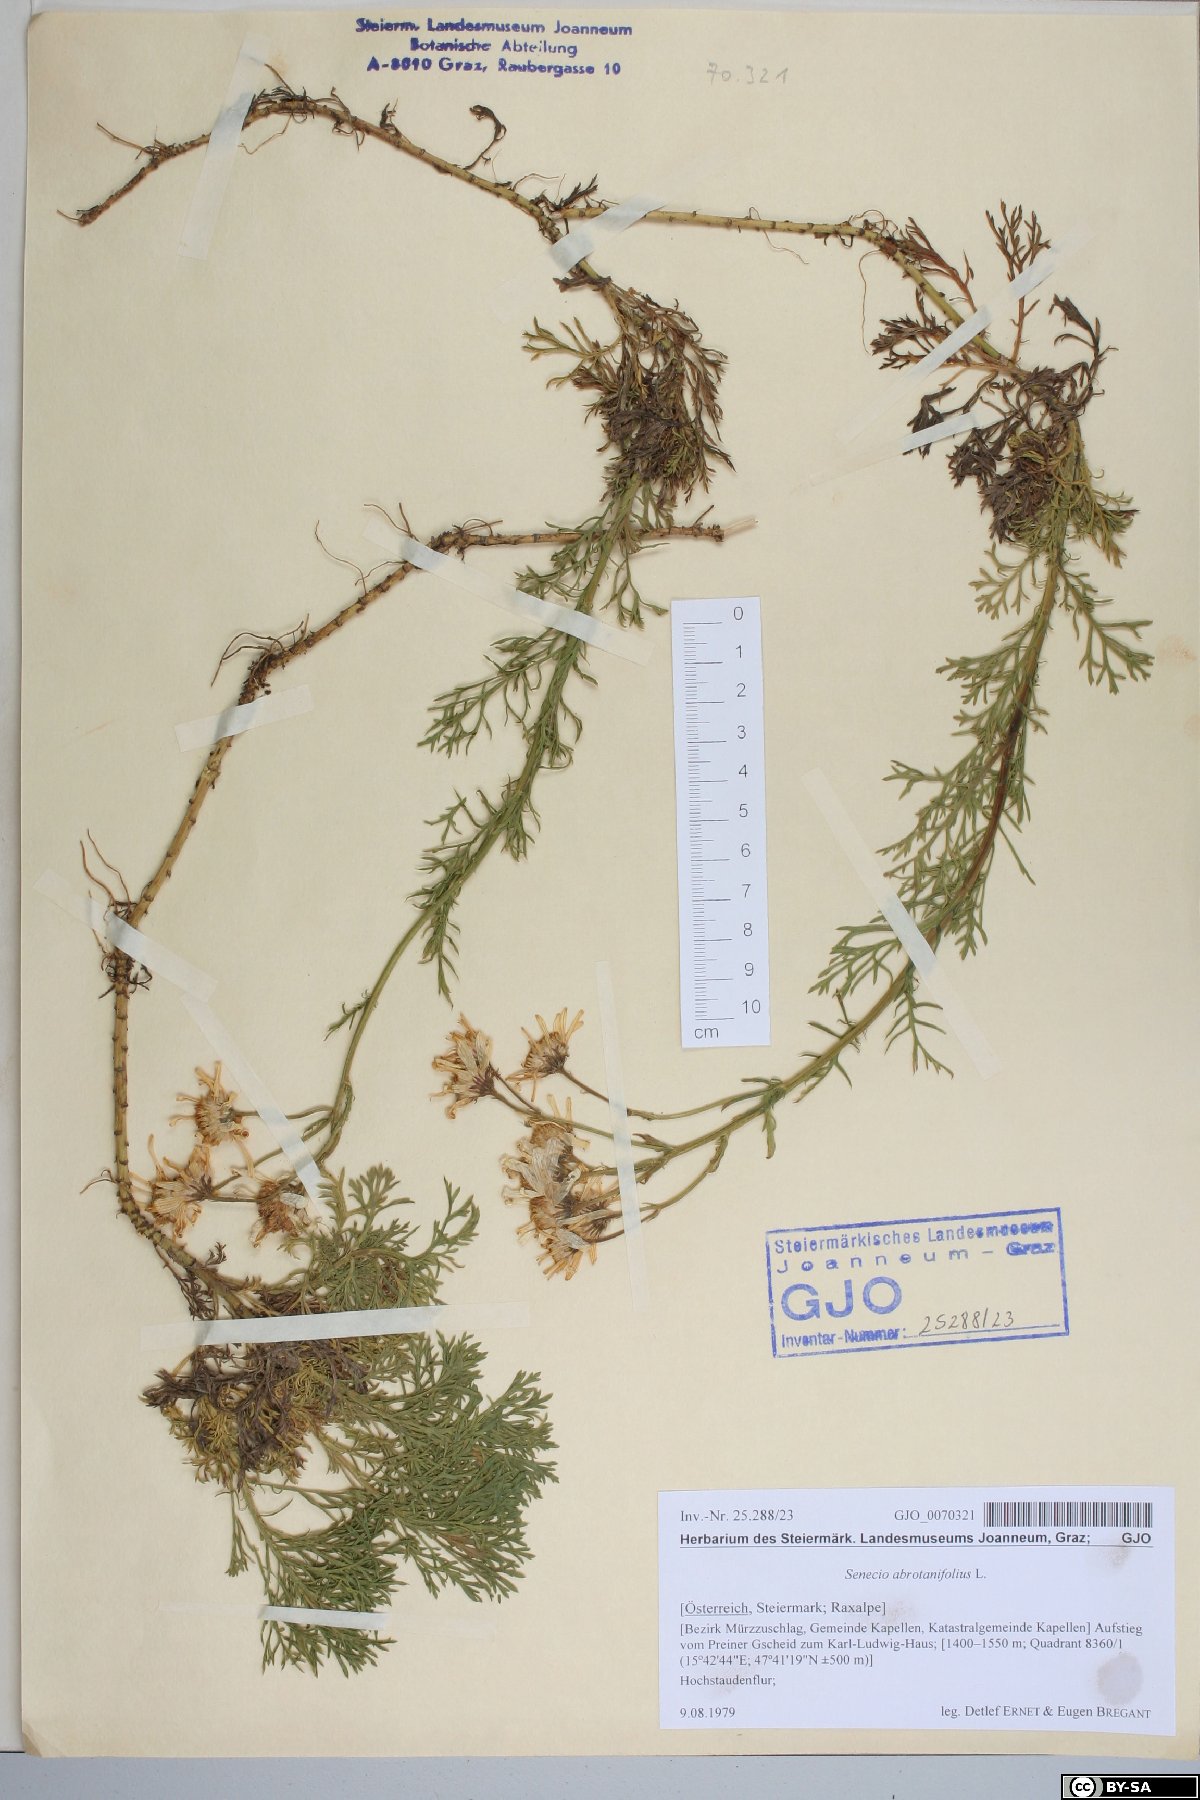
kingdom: Plantae
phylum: Tracheophyta
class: Magnoliopsida
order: Asterales
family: Asteraceae
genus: Jacobaea
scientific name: Jacobaea abrotanifolia
